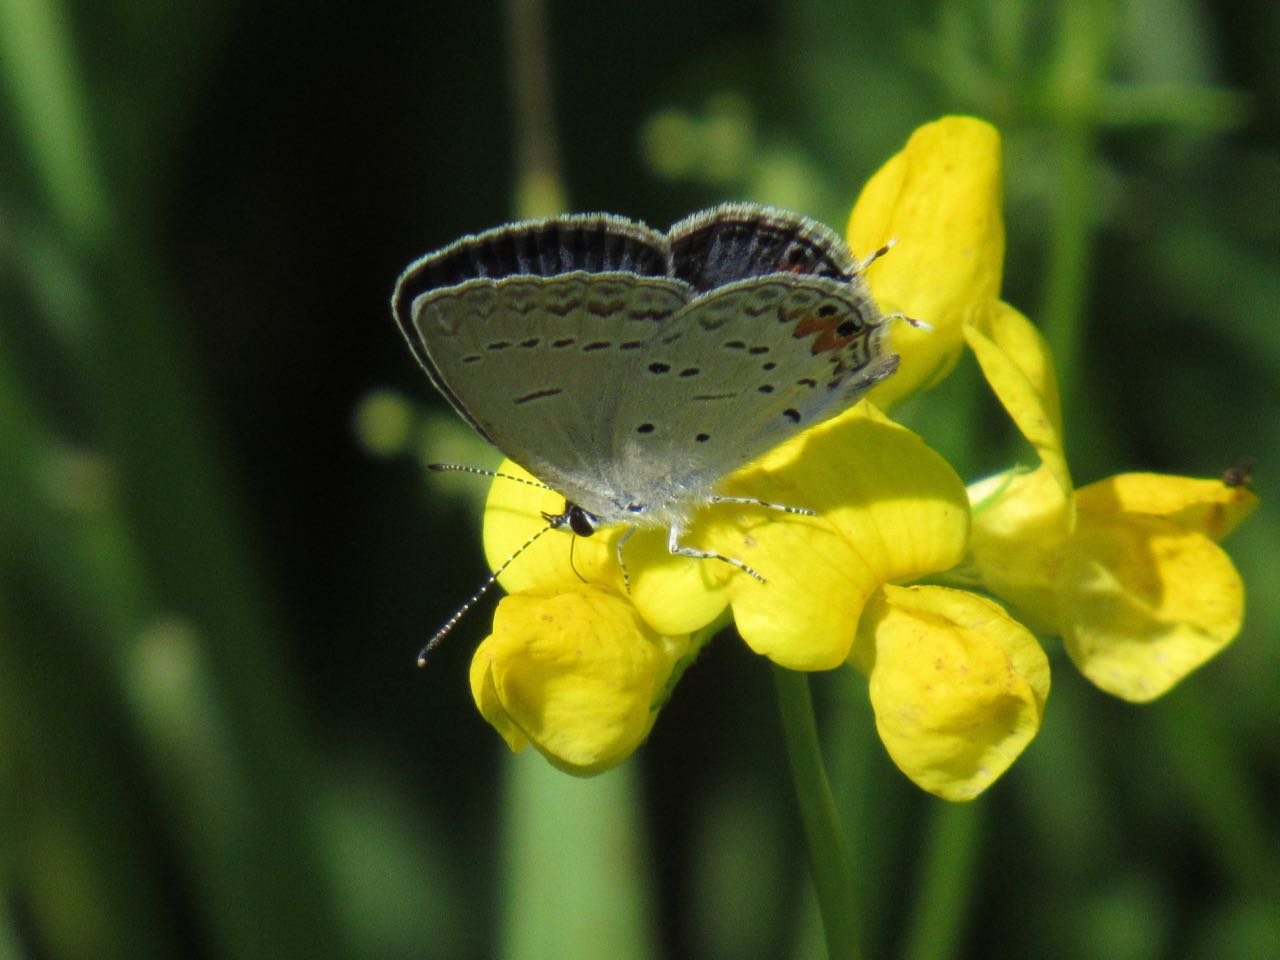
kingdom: Animalia
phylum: Arthropoda
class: Insecta
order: Lepidoptera
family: Lycaenidae
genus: Elkalyce
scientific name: Elkalyce comyntas
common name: Eastern Tailed-Blue
